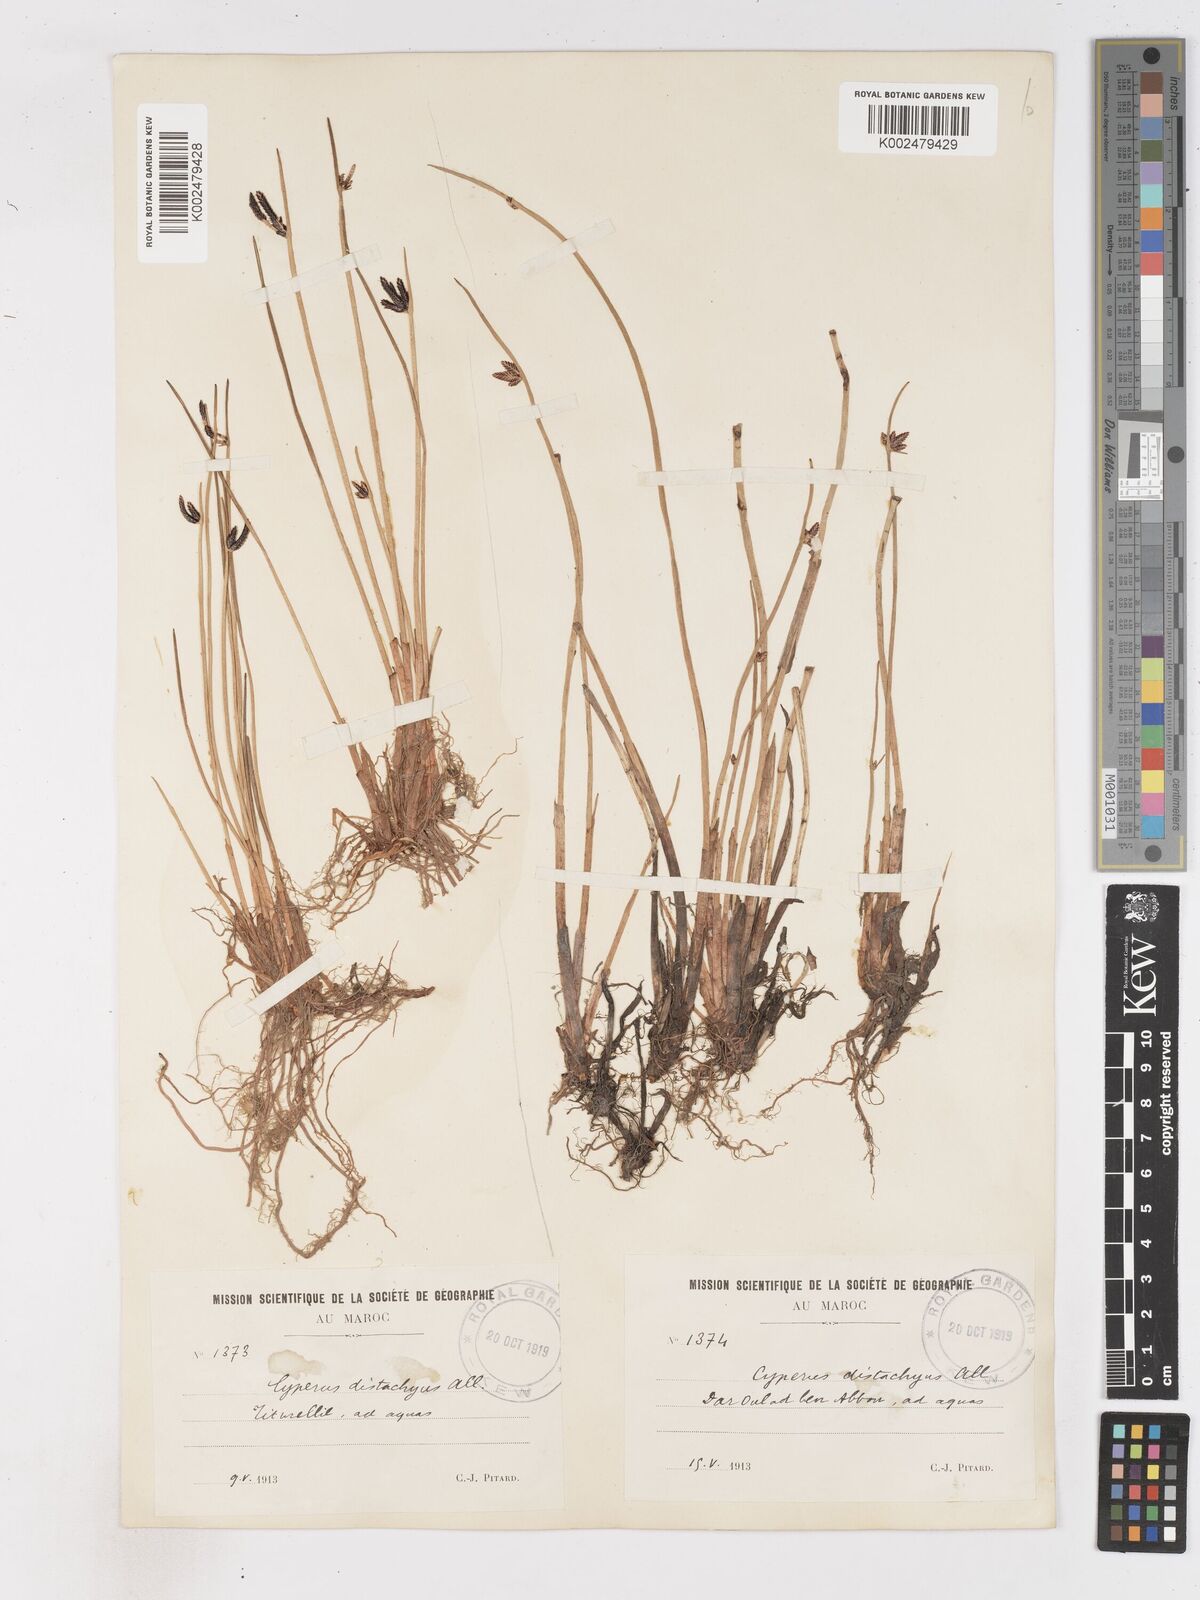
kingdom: Plantae
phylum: Tracheophyta
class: Liliopsida
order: Poales
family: Cyperaceae
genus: Cyperus
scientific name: Cyperus laevigatus
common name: Smooth flat sedge
